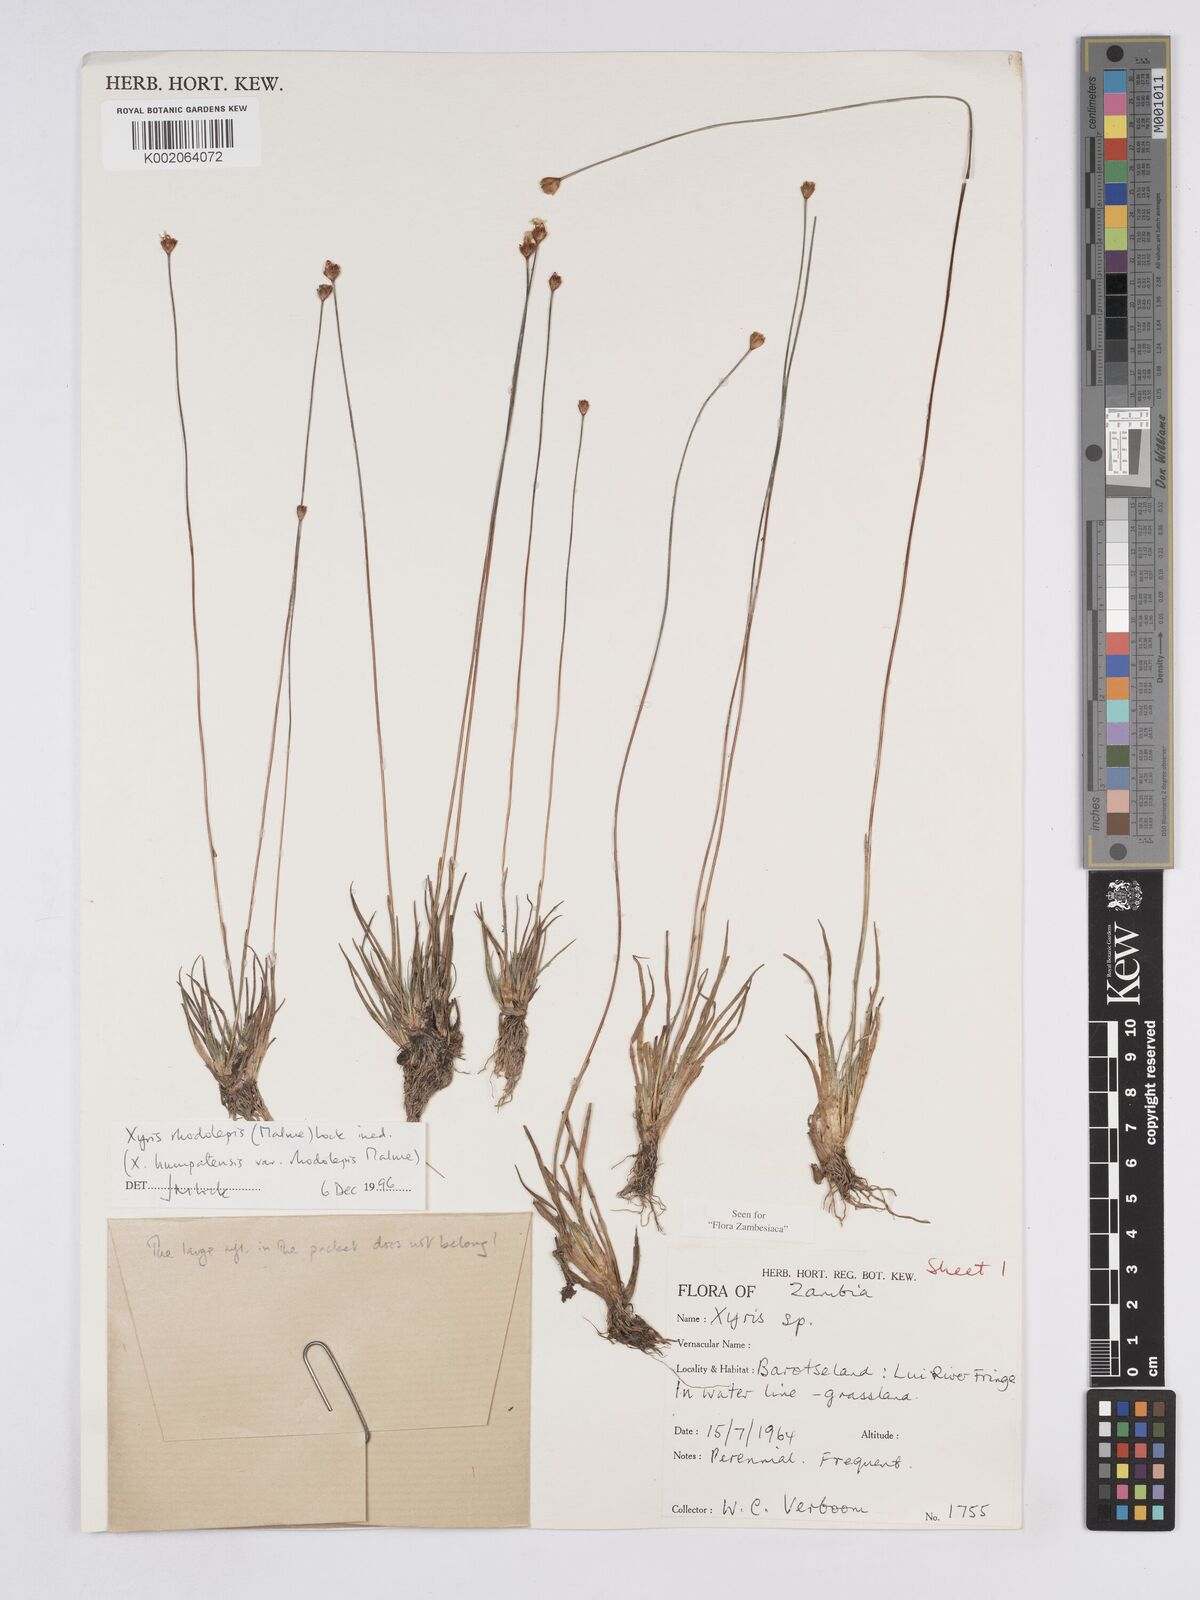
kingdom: Plantae
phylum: Tracheophyta
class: Liliopsida
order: Poales
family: Xyridaceae
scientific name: Xyridaceae
